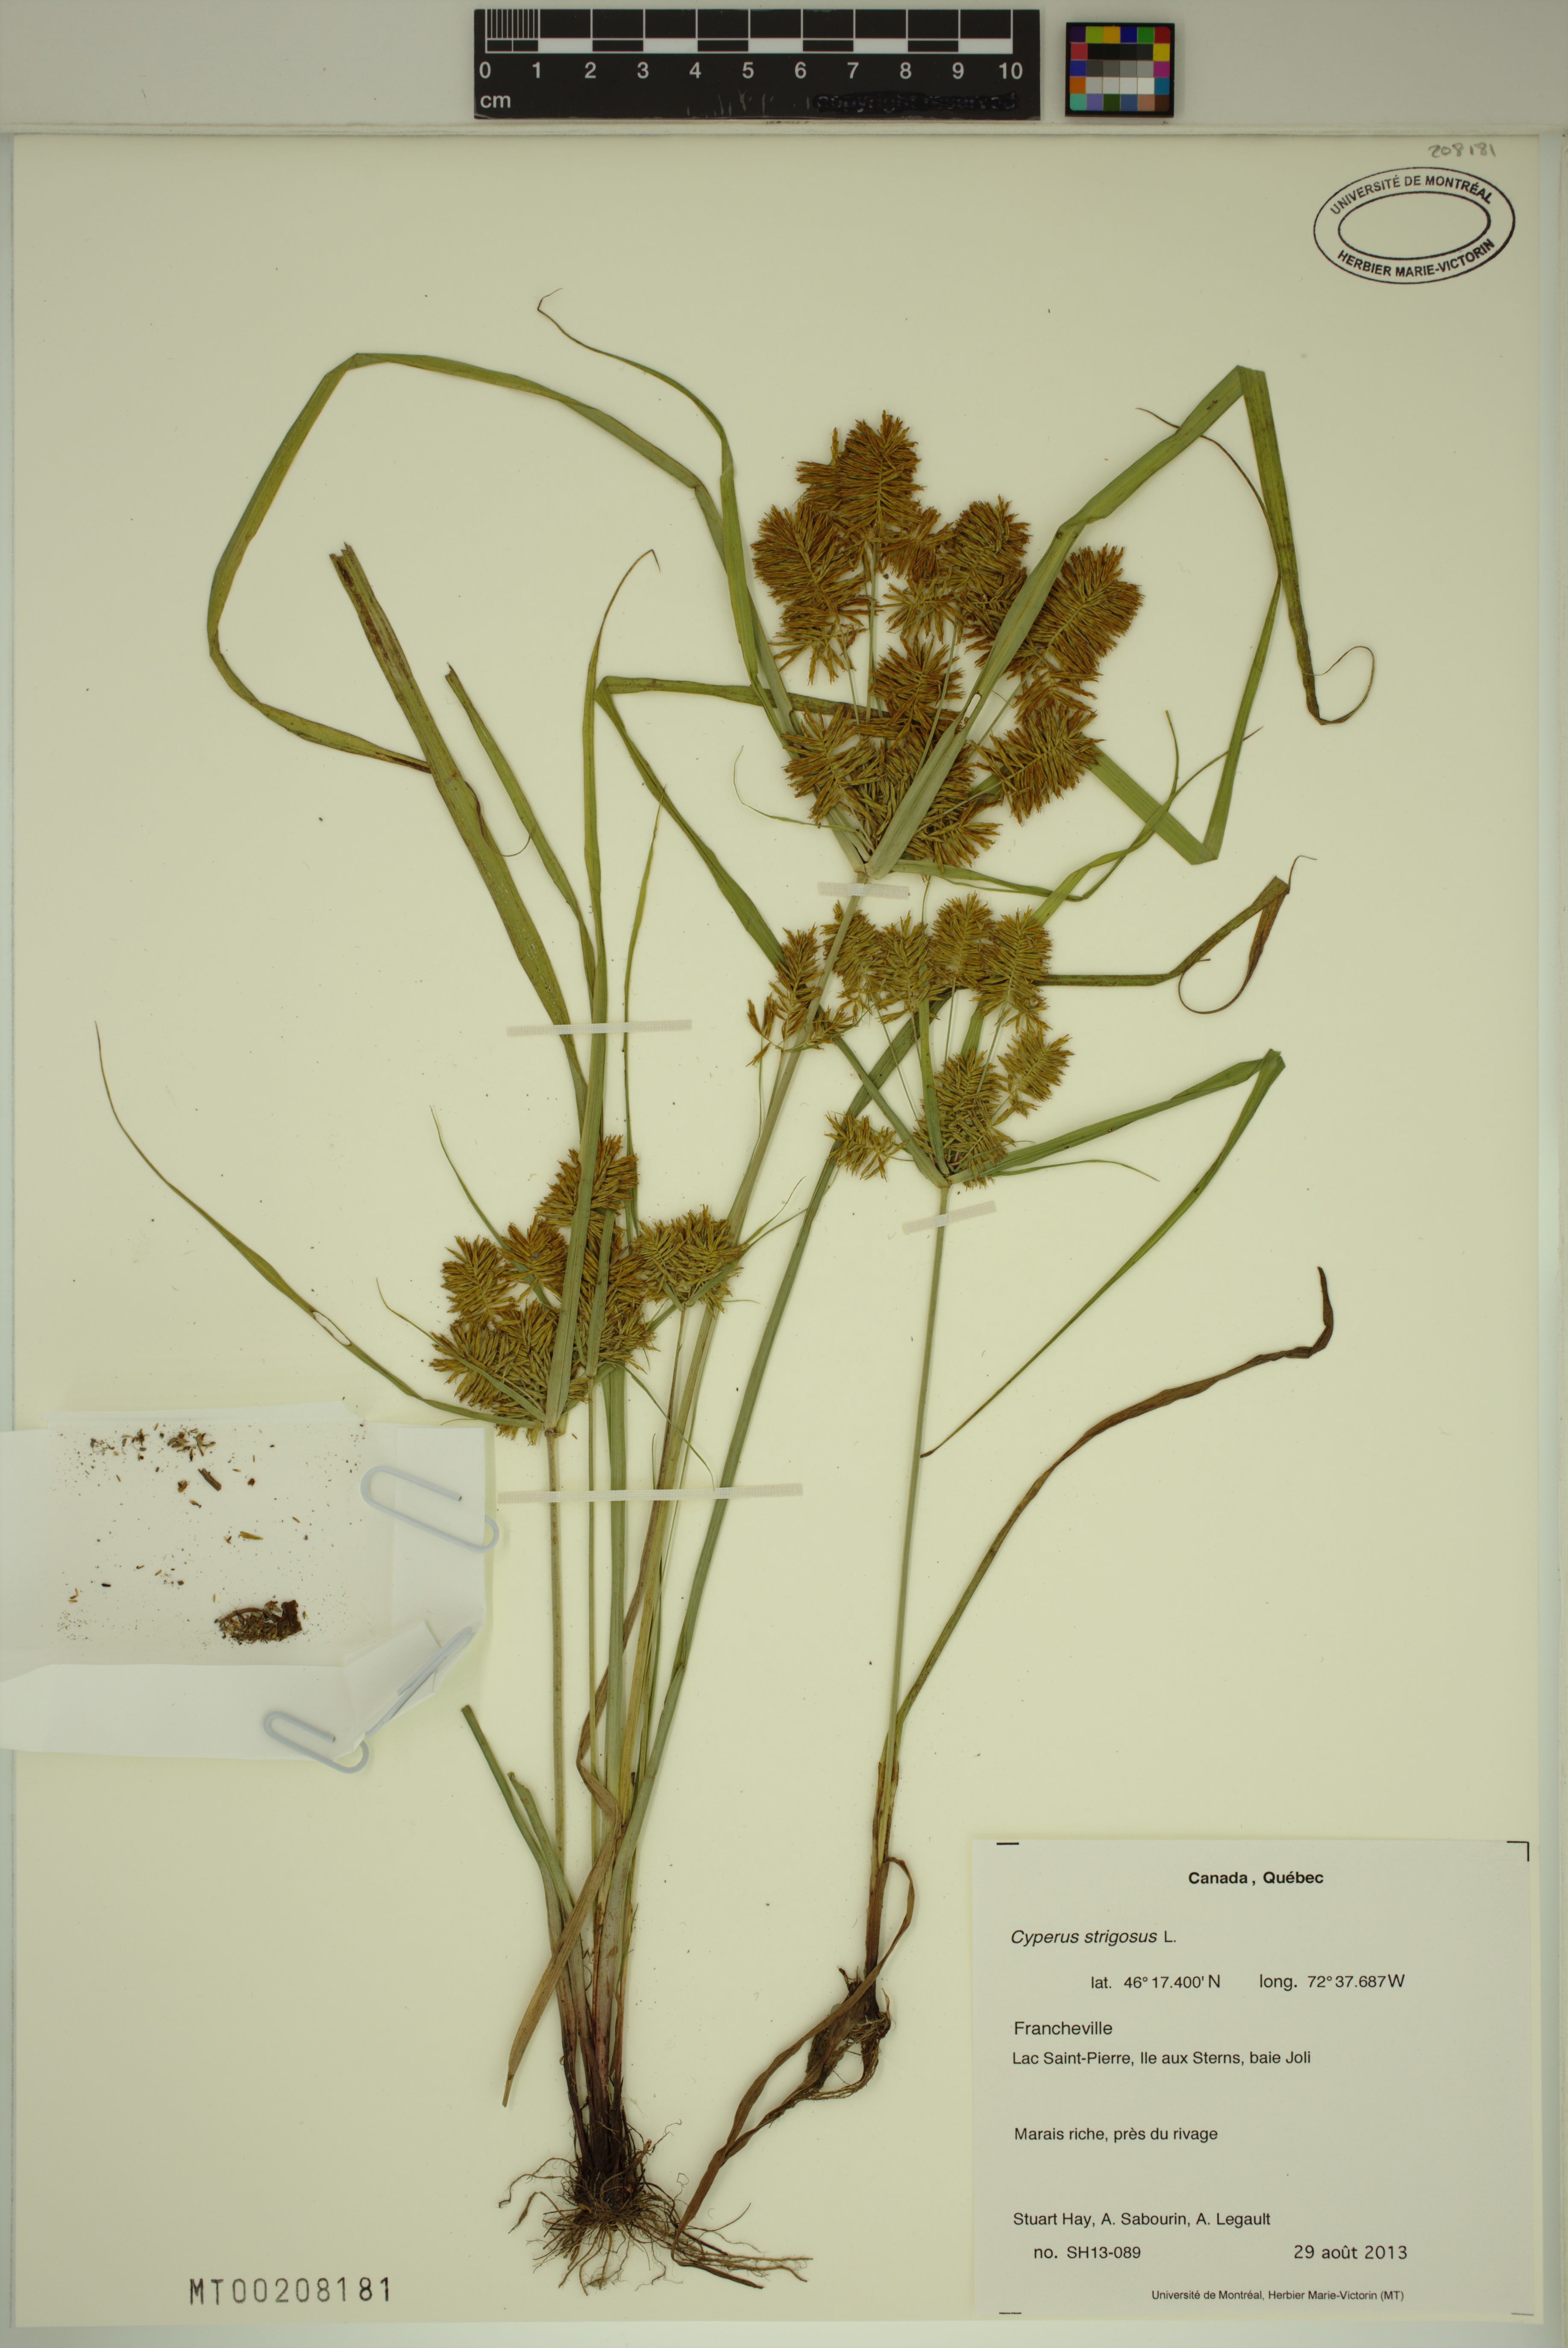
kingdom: Plantae
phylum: Tracheophyta
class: Liliopsida
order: Poales
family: Cyperaceae
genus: Cyperus
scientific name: Cyperus strigosus
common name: False nutsedge
